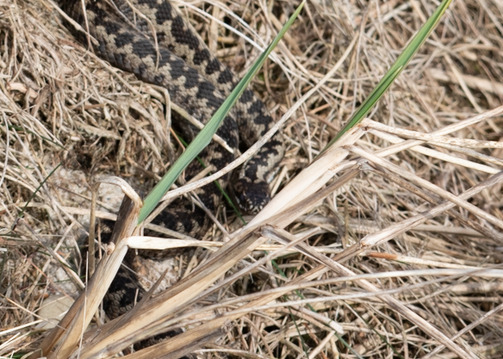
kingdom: Animalia
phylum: Chordata
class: Squamata
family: Viperidae
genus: Vipera
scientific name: Vipera berus
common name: Hugorm
